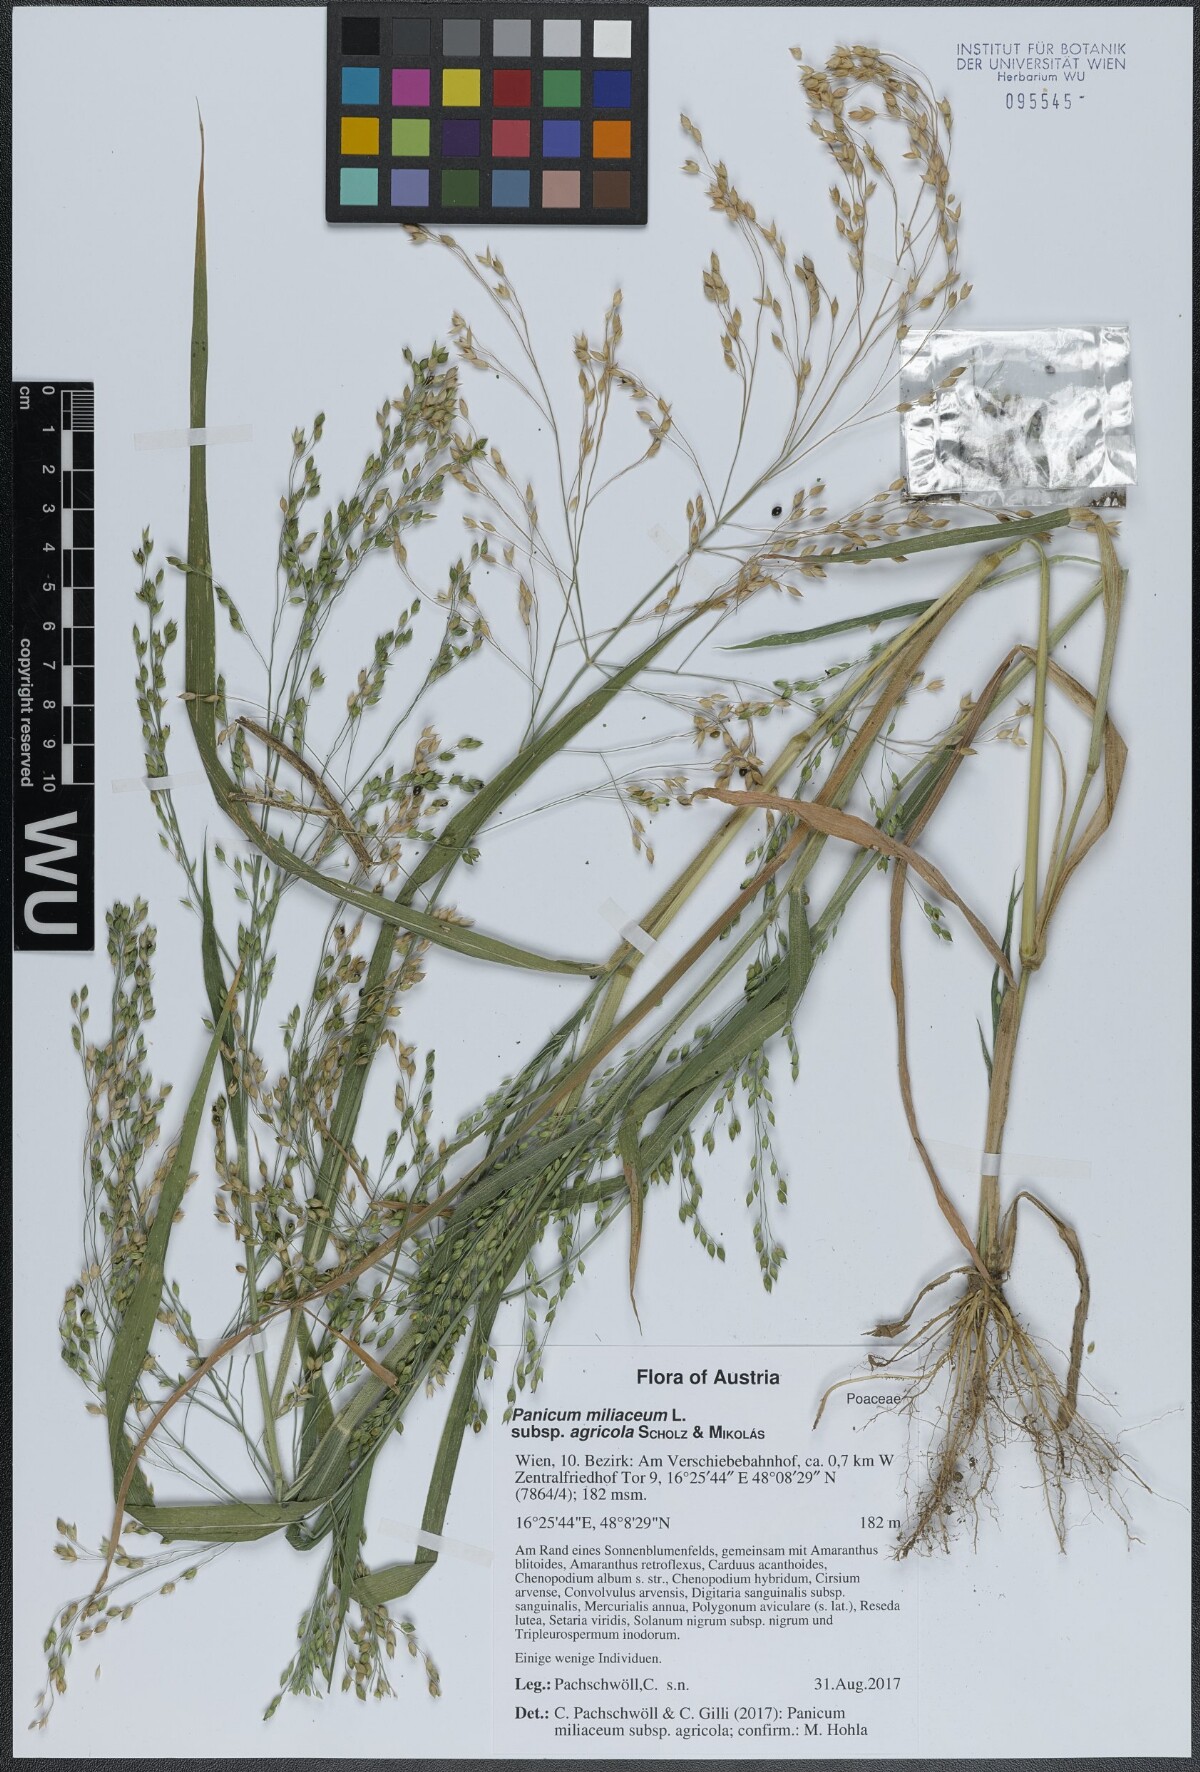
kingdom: Plantae
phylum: Tracheophyta
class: Liliopsida
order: Poales
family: Poaceae
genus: Panicum
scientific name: Panicum miliaceum
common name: Common millet
